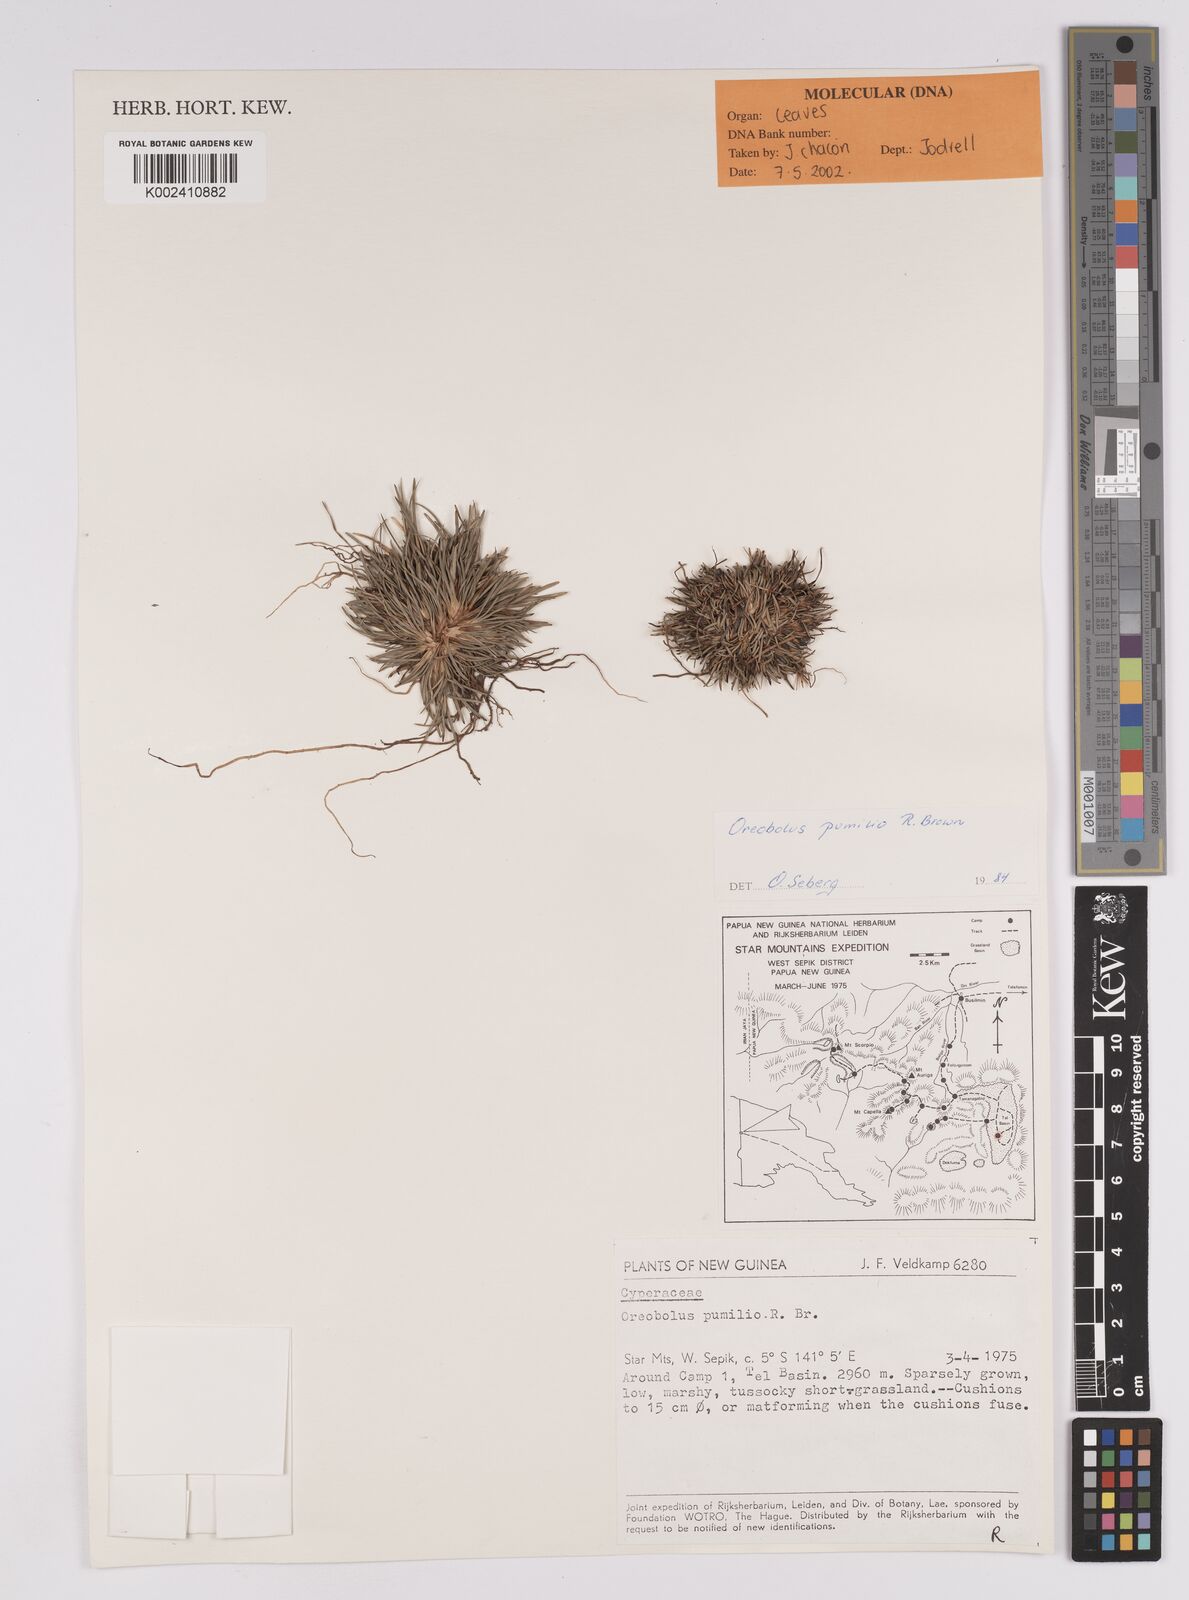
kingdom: Plantae
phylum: Tracheophyta
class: Liliopsida
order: Poales
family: Cyperaceae
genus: Oreobolus
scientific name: Oreobolus pumilio
